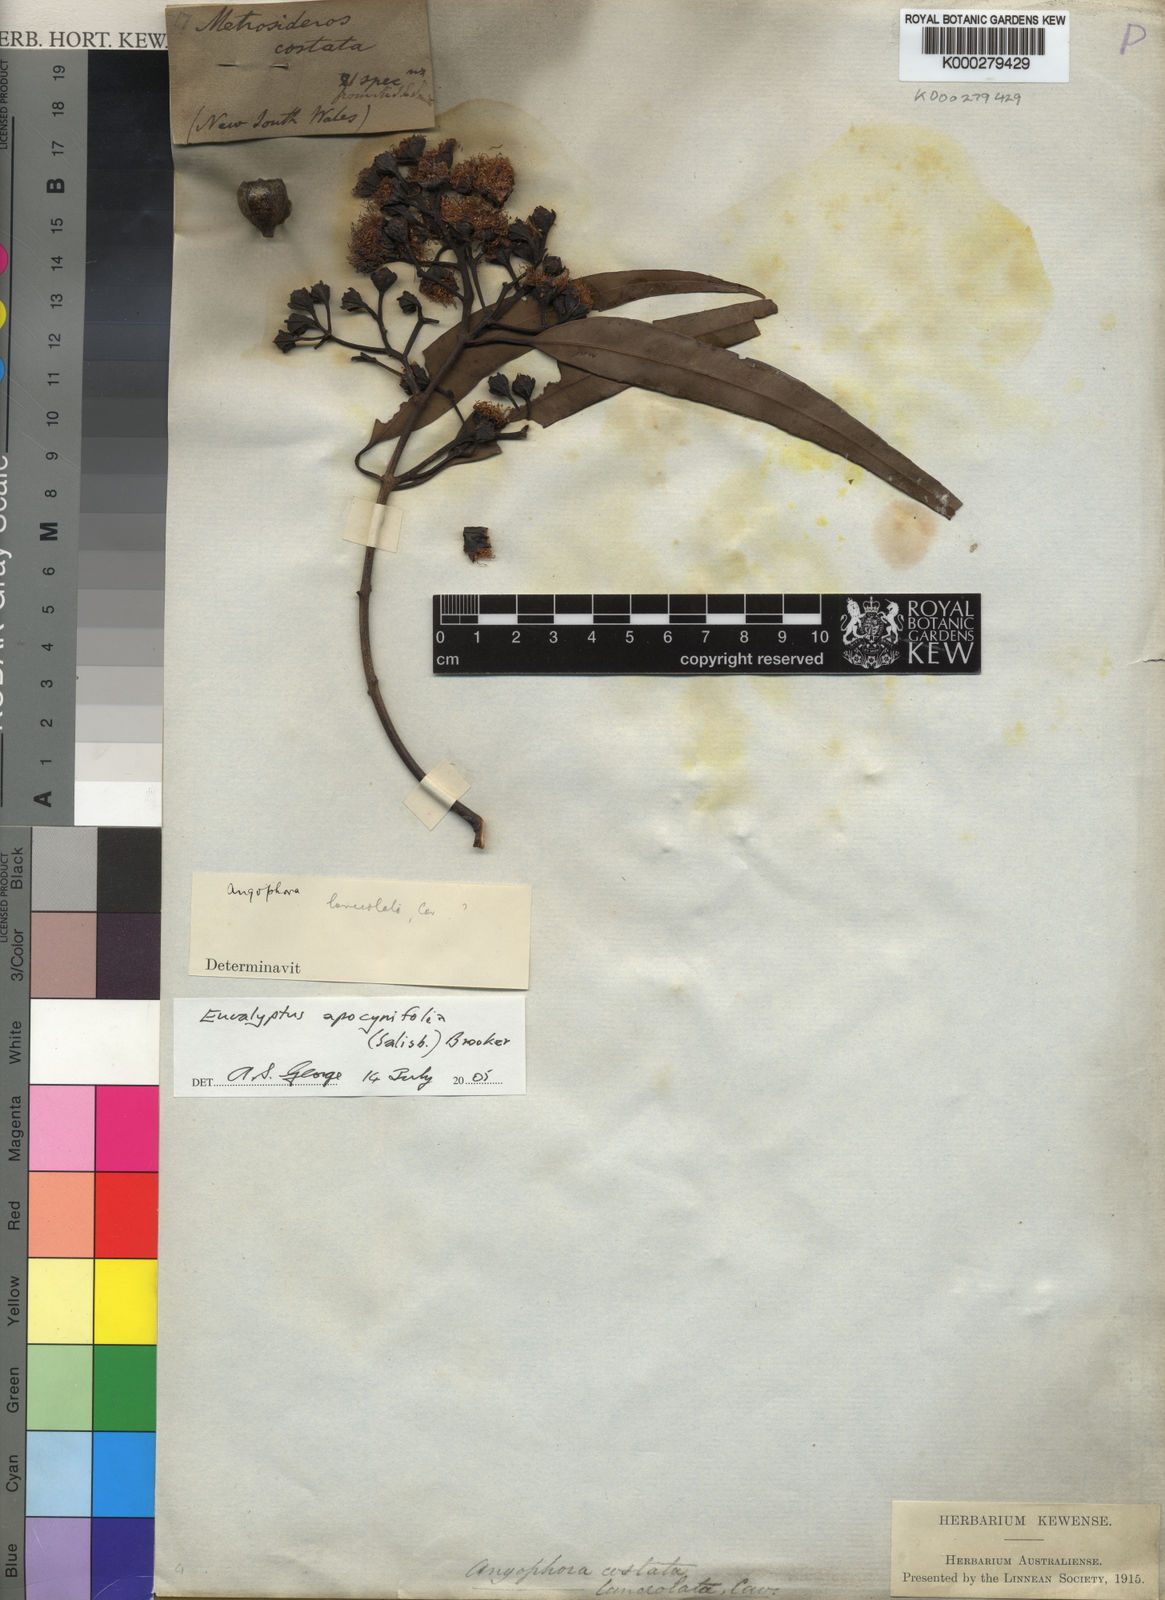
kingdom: Plantae
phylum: Tracheophyta
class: Magnoliopsida
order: Myrtales
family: Myrtaceae
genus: Angophora
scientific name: Angophora costata
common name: Gum myrtle
